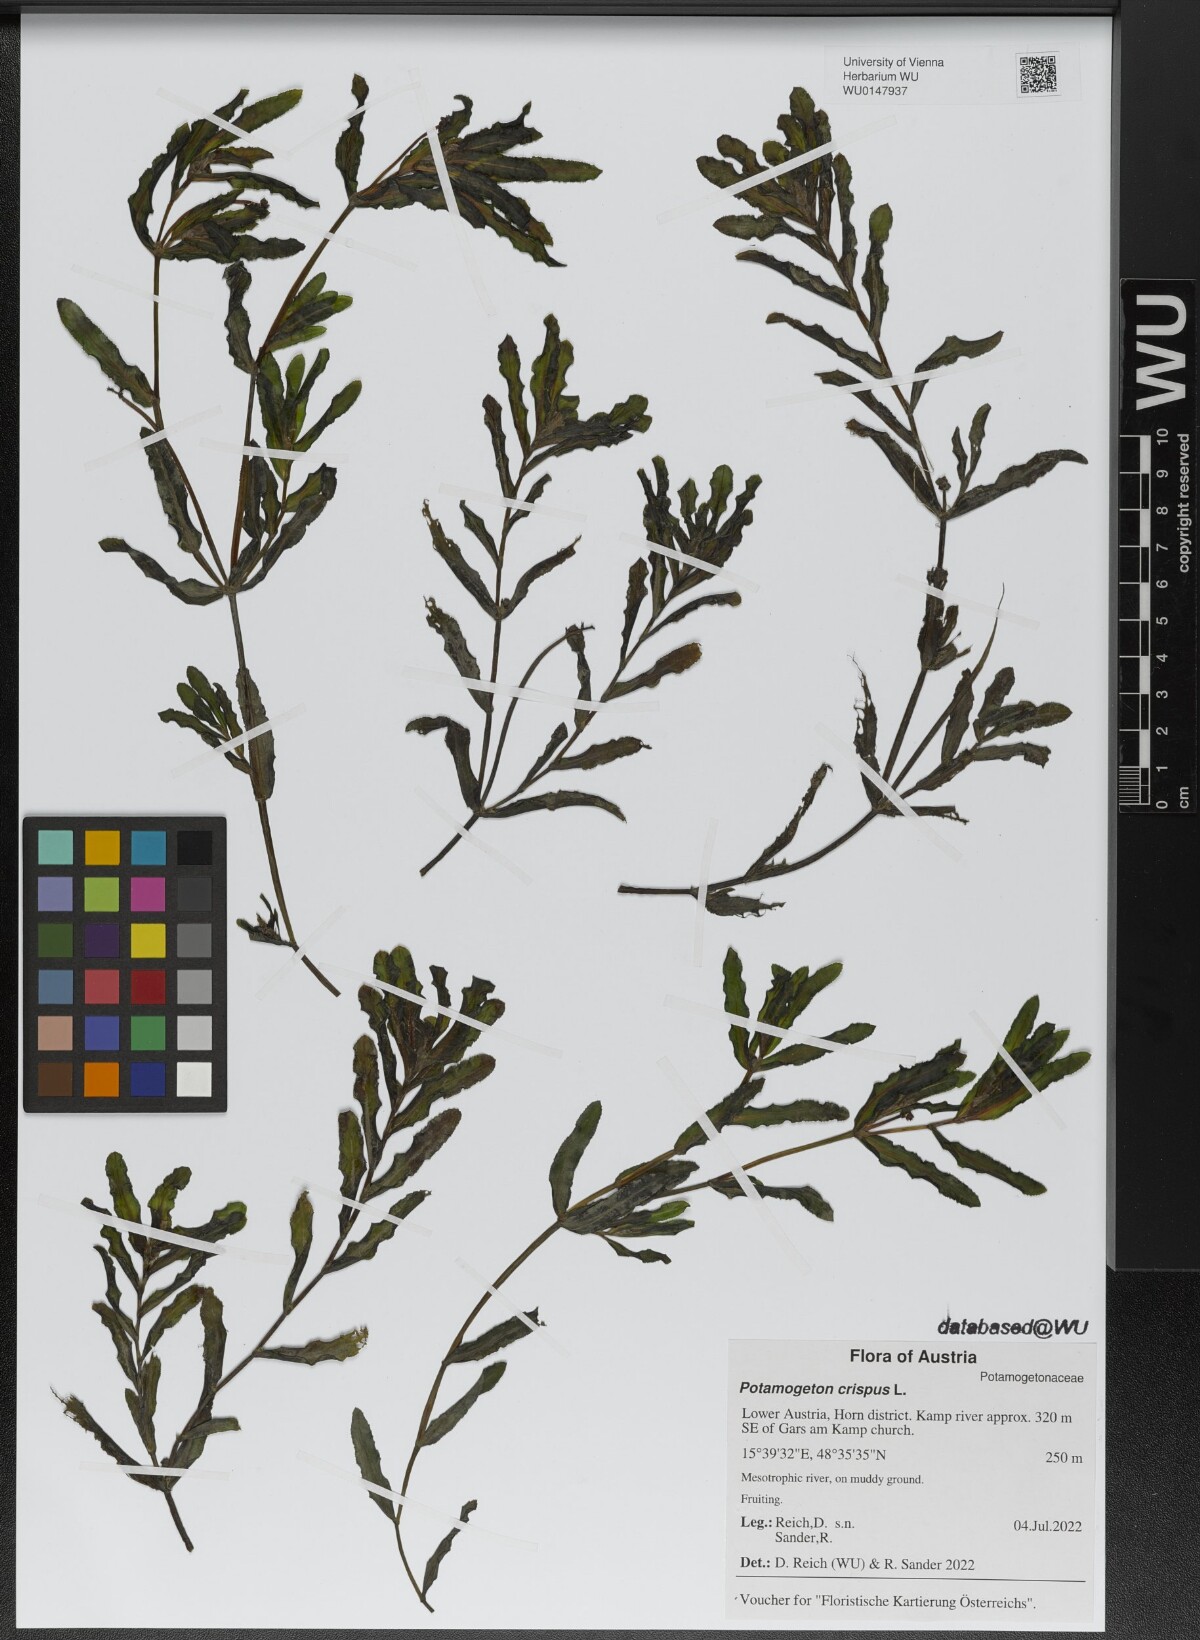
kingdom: Plantae
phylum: Tracheophyta
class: Liliopsida
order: Alismatales
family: Potamogetonaceae
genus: Potamogeton
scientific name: Potamogeton crispus
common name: Curled pondweed
